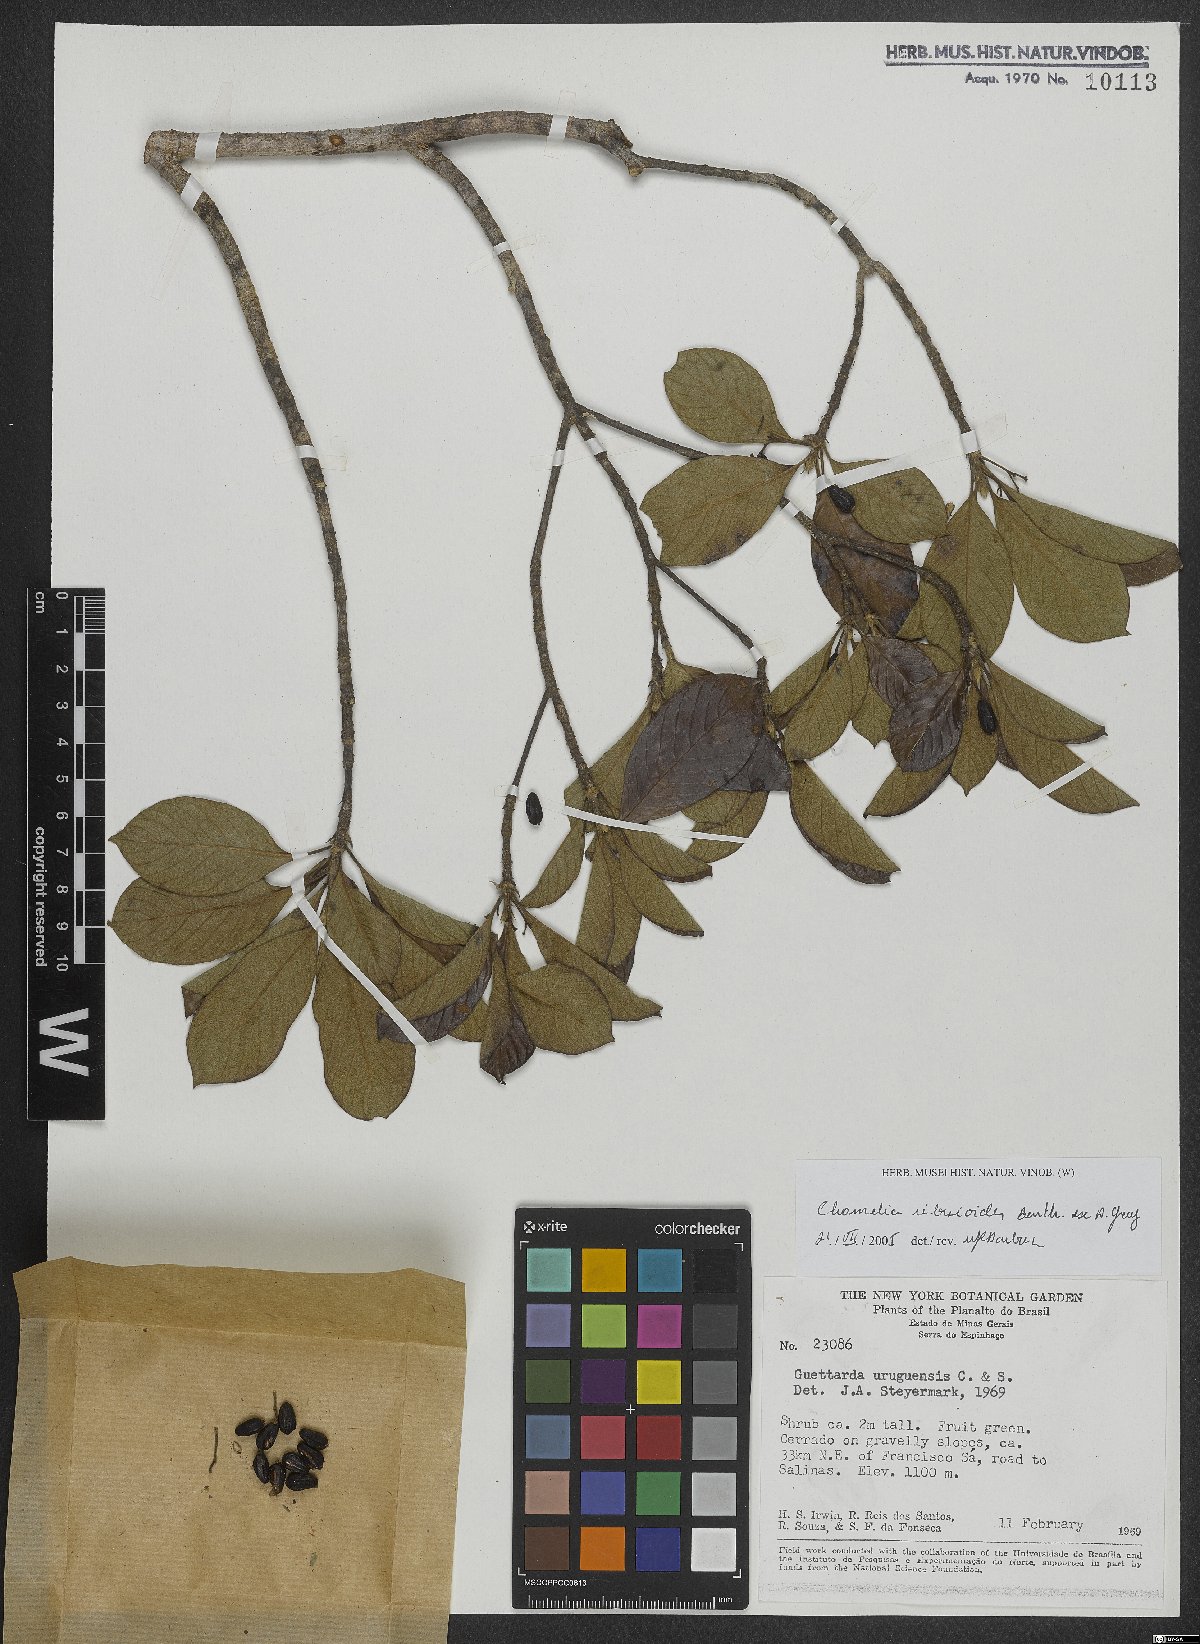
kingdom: Plantae
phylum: Tracheophyta
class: Magnoliopsida
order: Gentianales
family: Rubiaceae
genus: Chomelia
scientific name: Chomelia ribesioides
